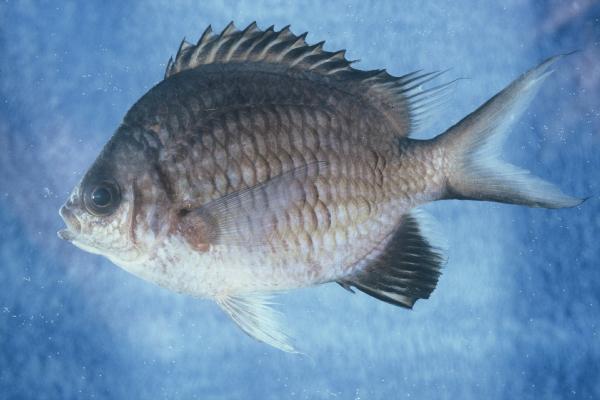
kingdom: Animalia
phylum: Chordata
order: Perciformes
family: Pomacentridae
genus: Chromis
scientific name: Chromis ternatensis
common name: Ternate chromis
